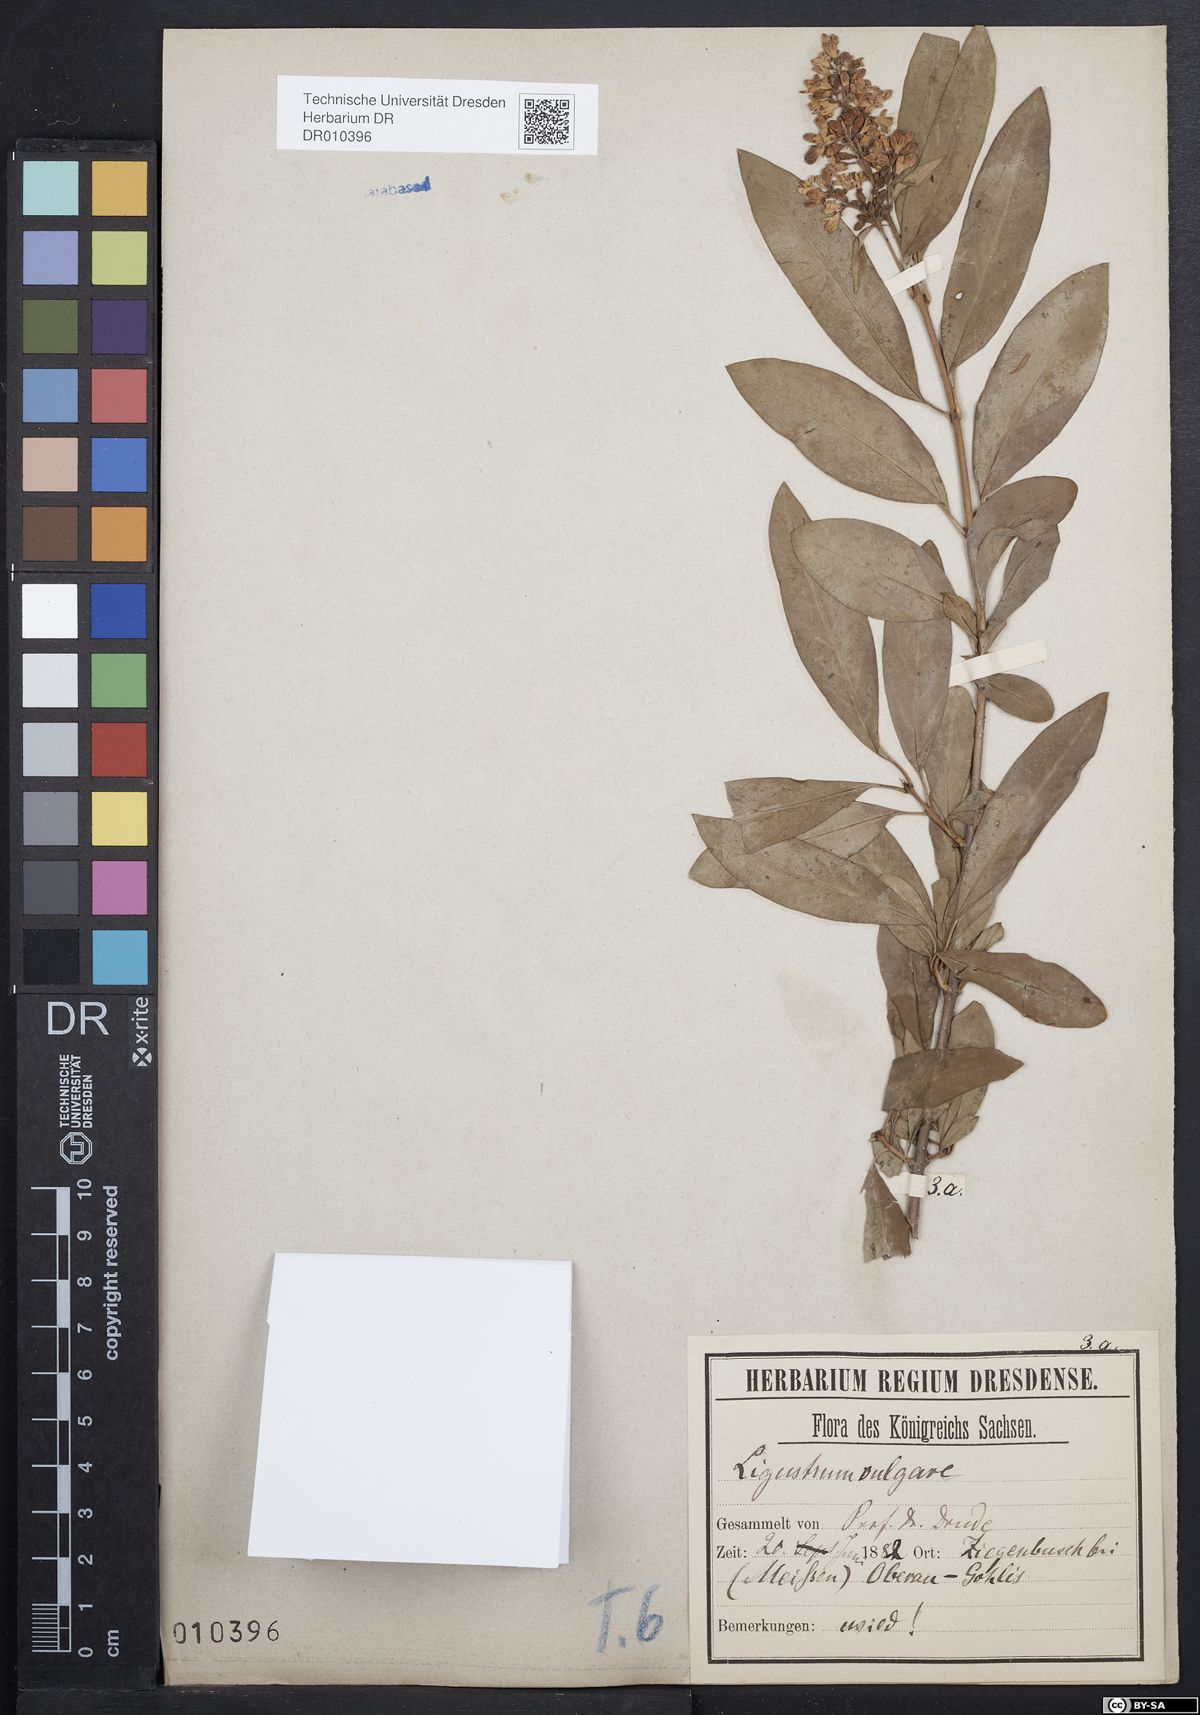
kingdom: Plantae
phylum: Tracheophyta
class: Magnoliopsida
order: Lamiales
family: Oleaceae
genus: Ligustrum
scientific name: Ligustrum vulgare
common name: Wild privet
